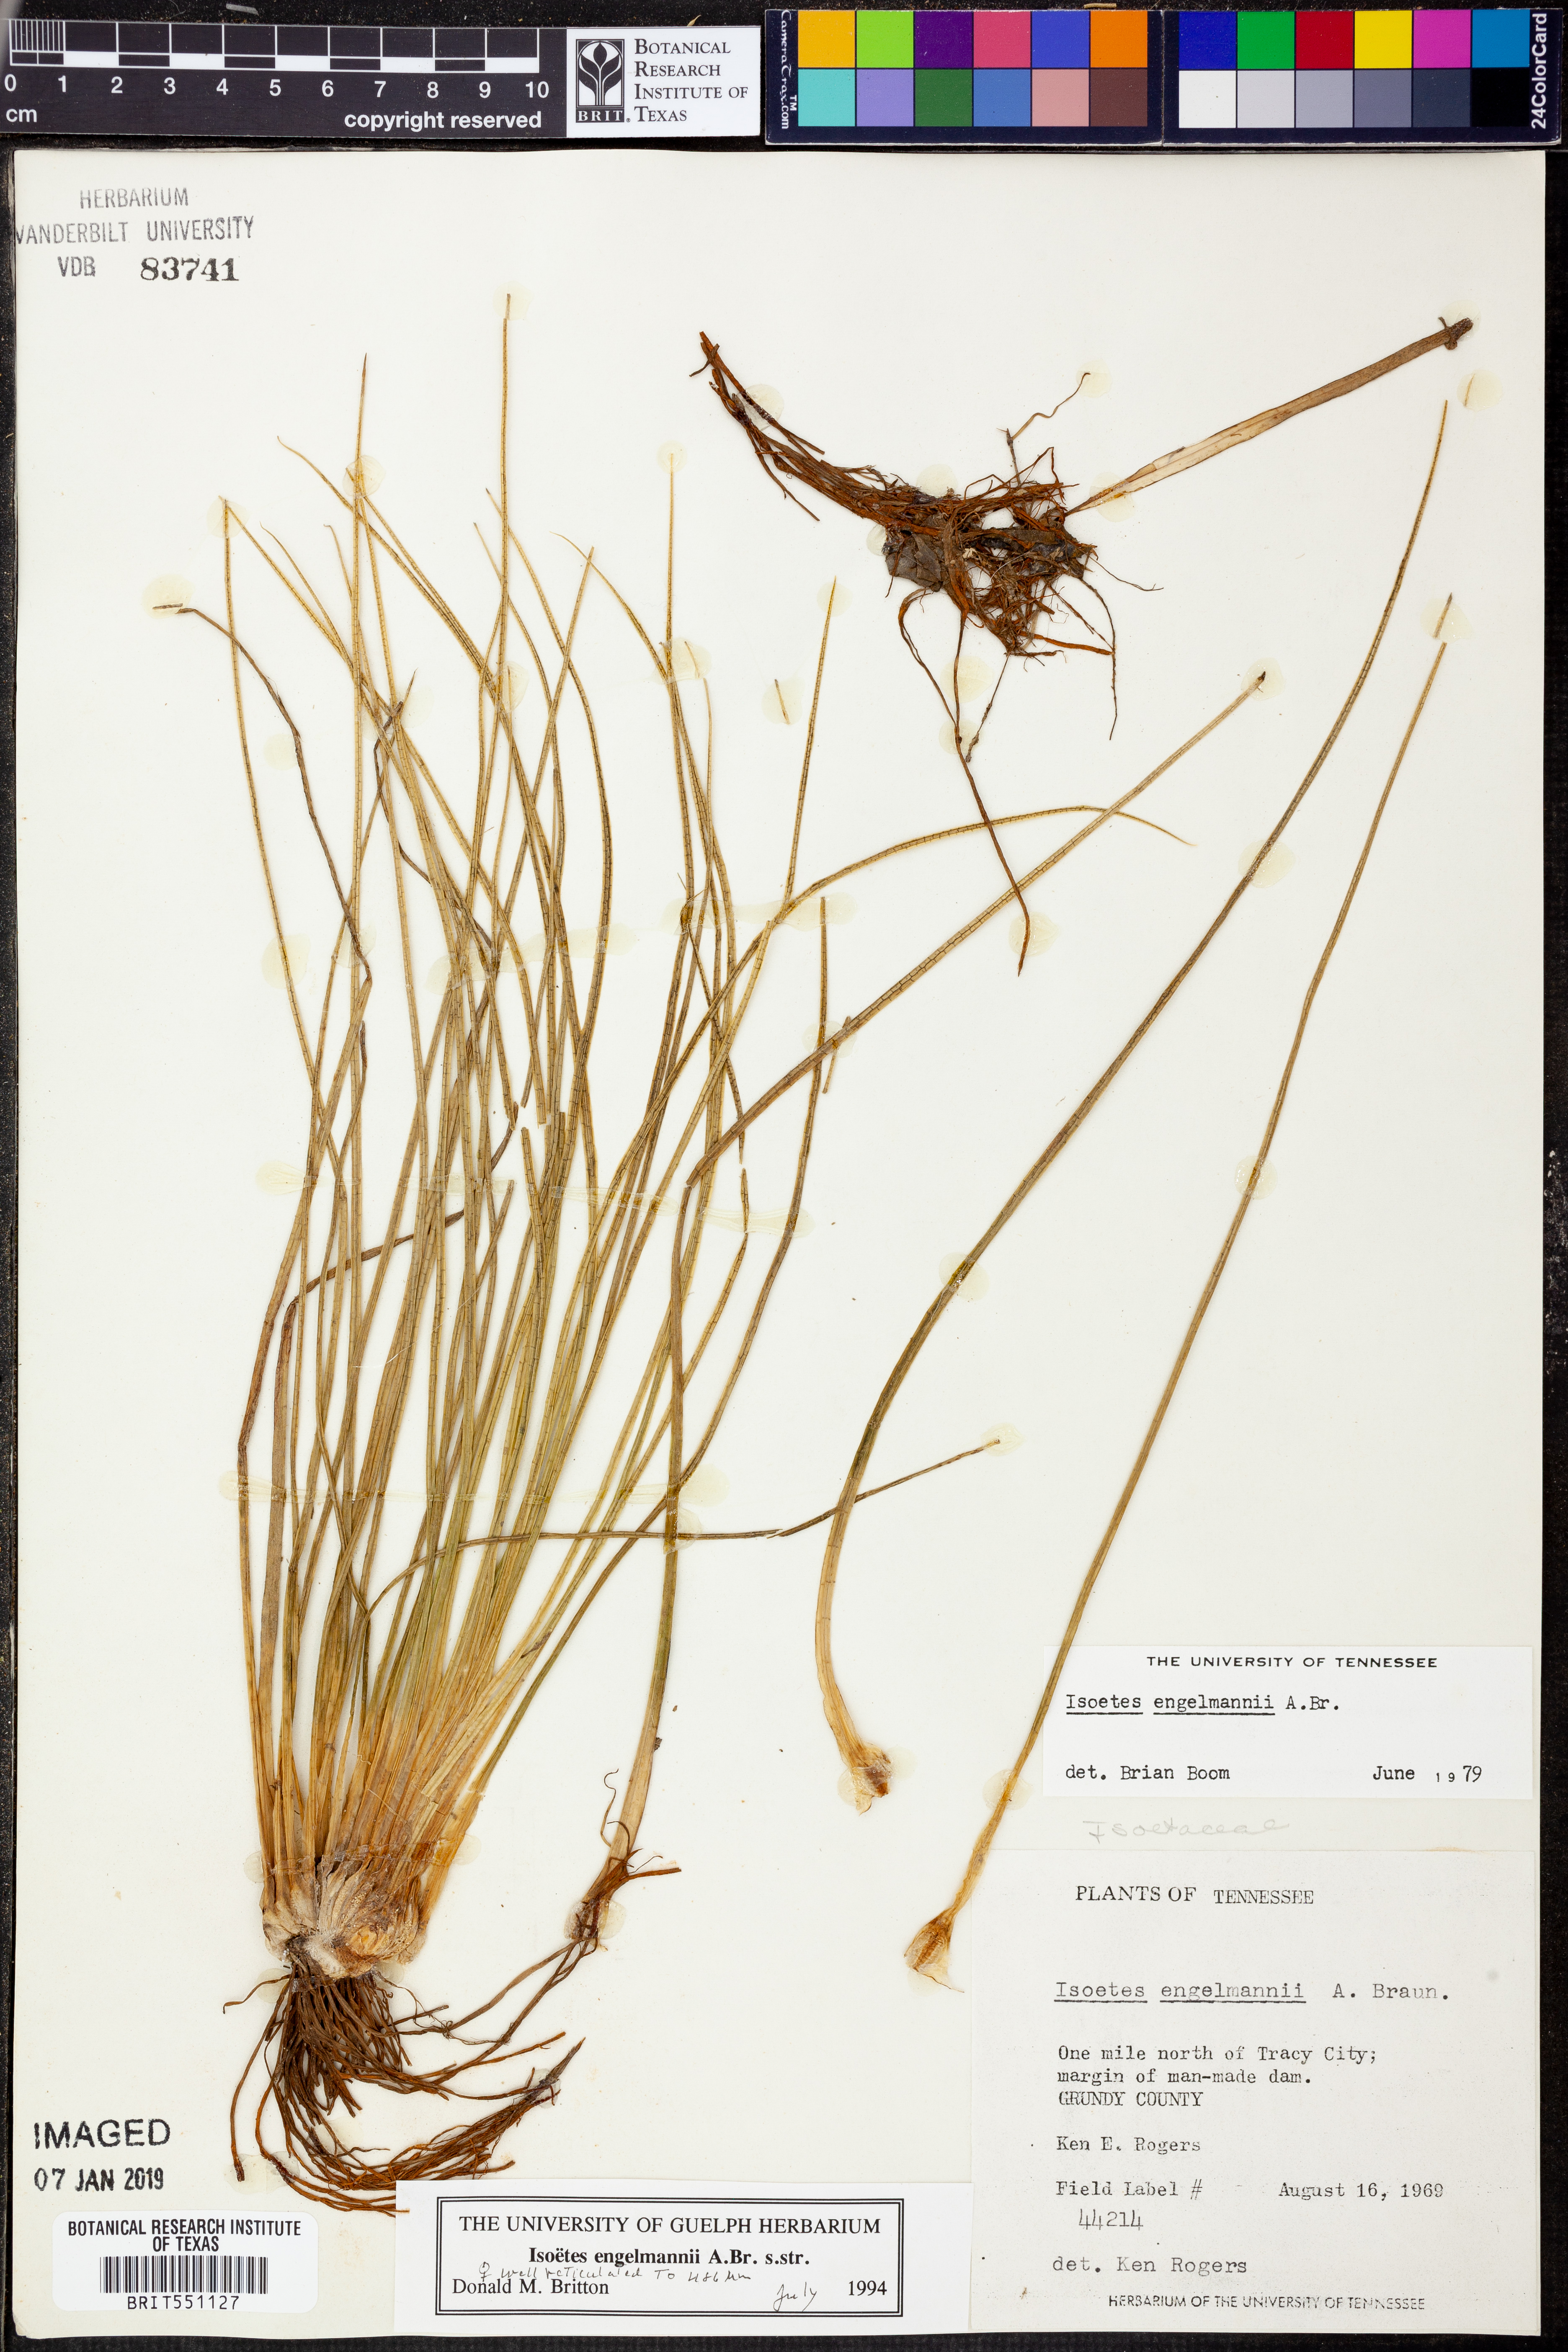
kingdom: Plantae
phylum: Tracheophyta
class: Lycopodiopsida
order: Isoetales
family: Isoetaceae
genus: Isoetes
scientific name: Isoetes engelmannii
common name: Engelmann's quillwort
